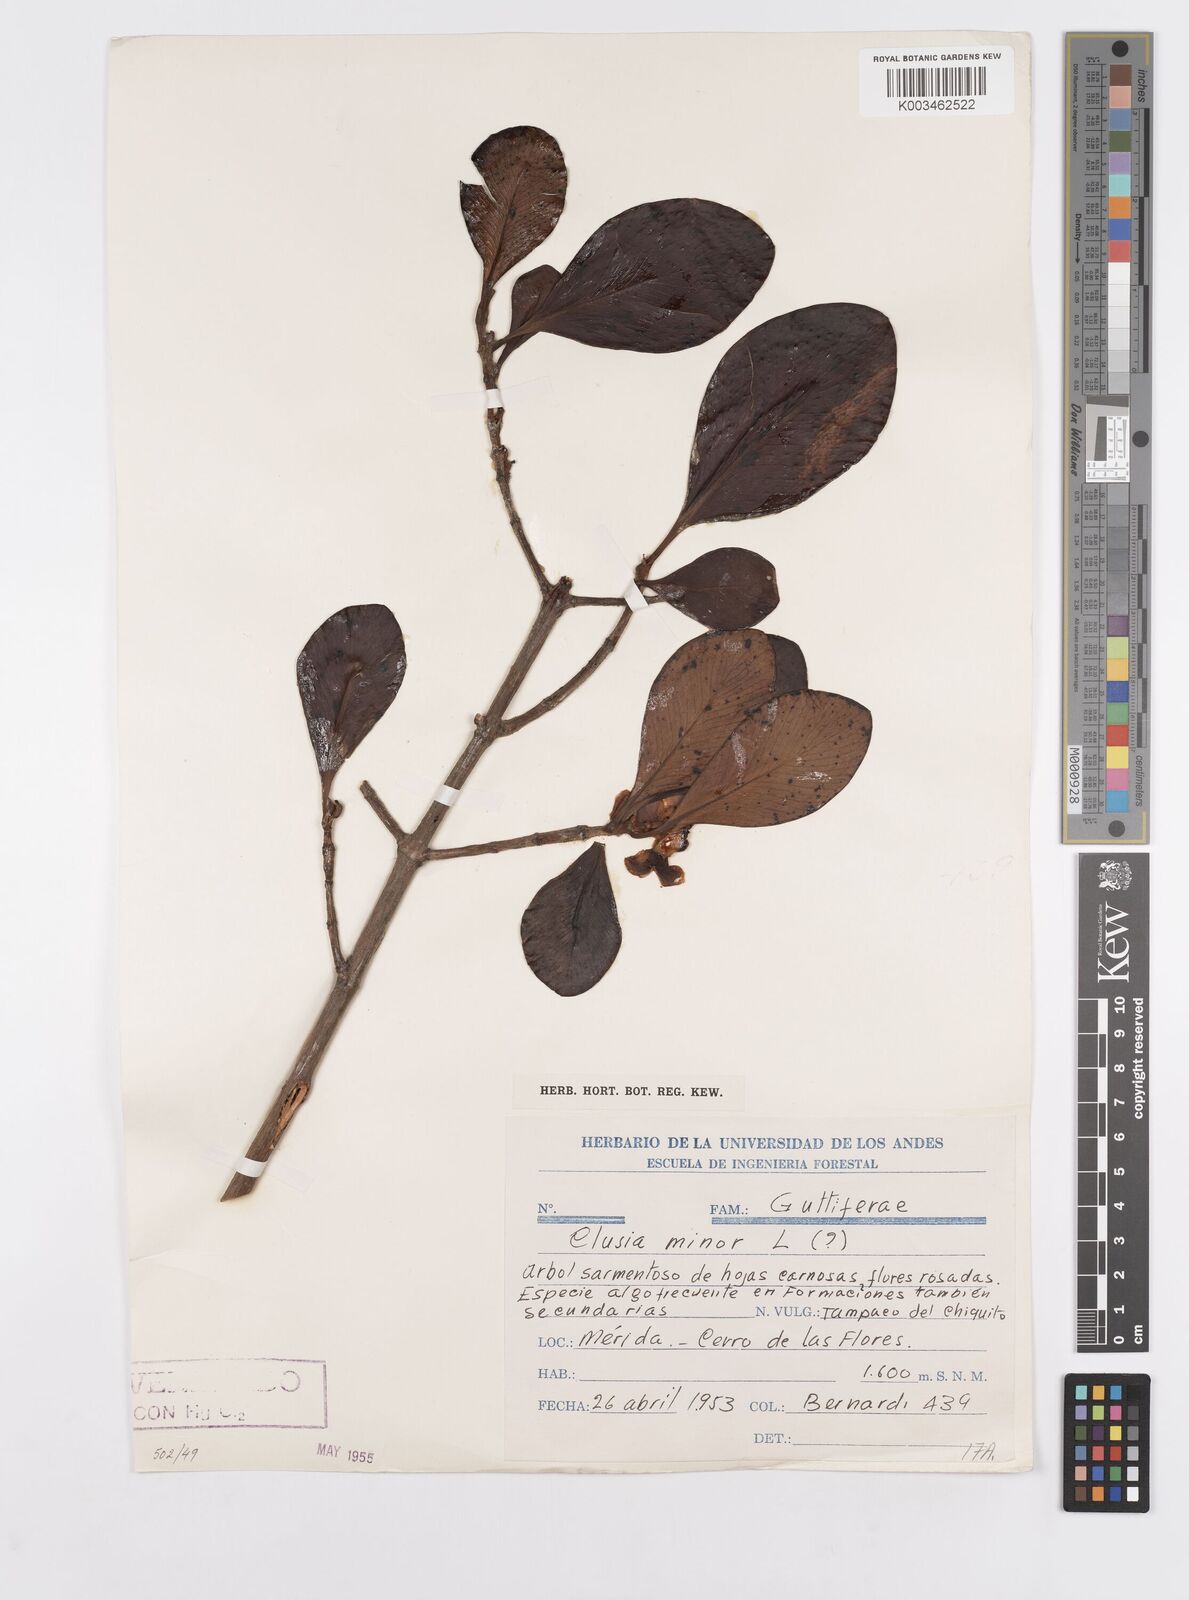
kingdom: Plantae
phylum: Tracheophyta
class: Magnoliopsida
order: Malpighiales
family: Clusiaceae
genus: Clusia
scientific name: Clusia minor
